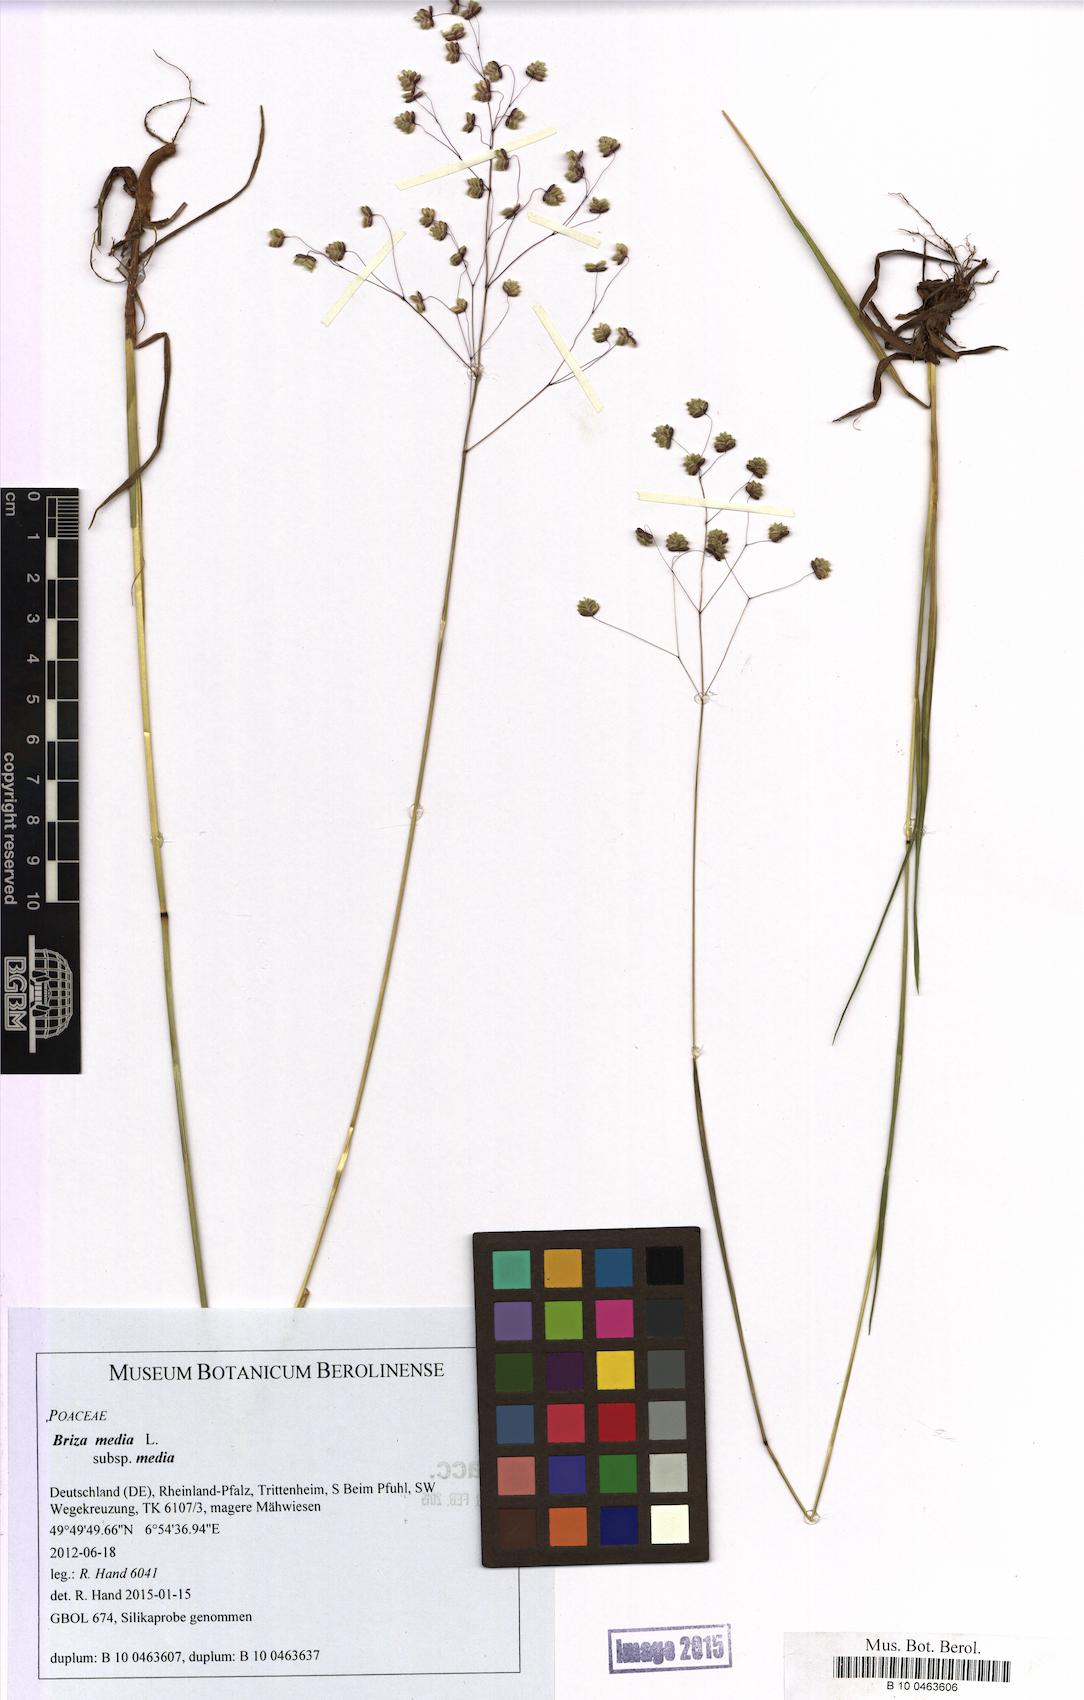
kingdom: Plantae
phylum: Tracheophyta
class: Liliopsida
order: Poales
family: Poaceae
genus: Briza
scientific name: Briza media
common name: Quaking grass
